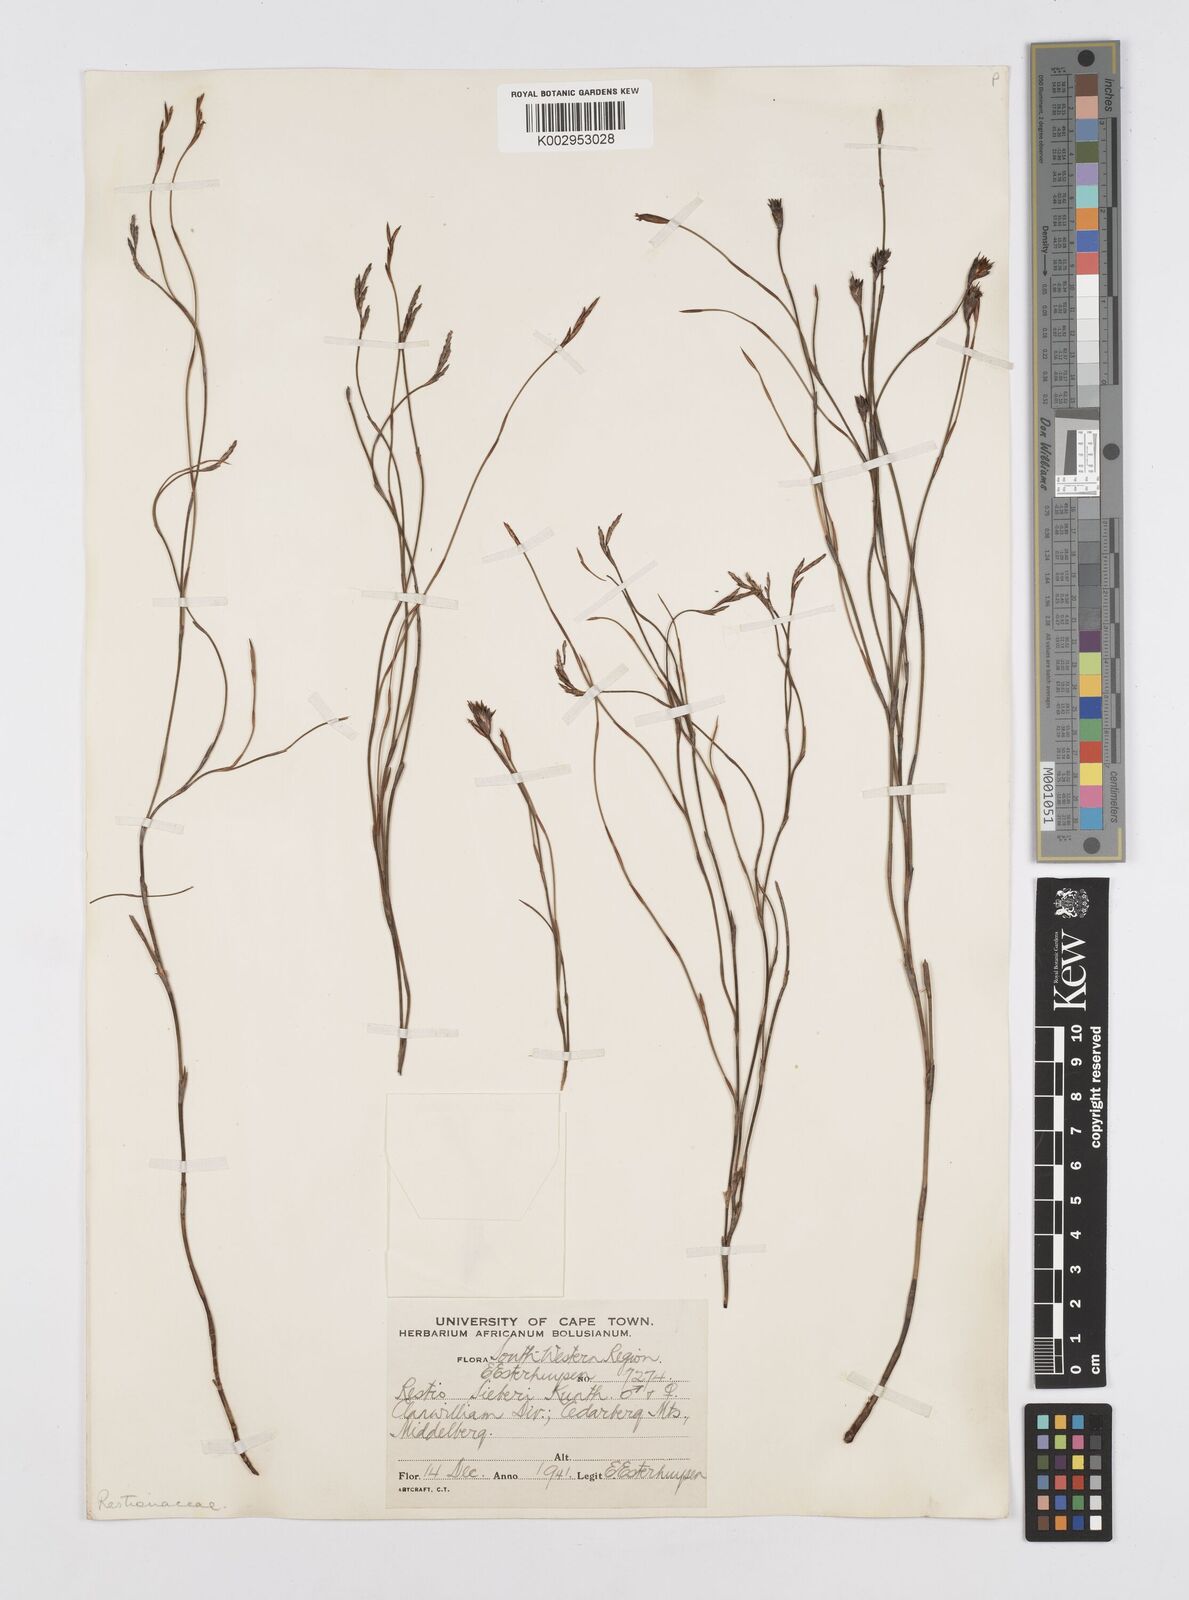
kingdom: Plantae
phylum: Tracheophyta
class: Liliopsida
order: Poales
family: Restionaceae
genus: Restio
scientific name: Restio sieberi
